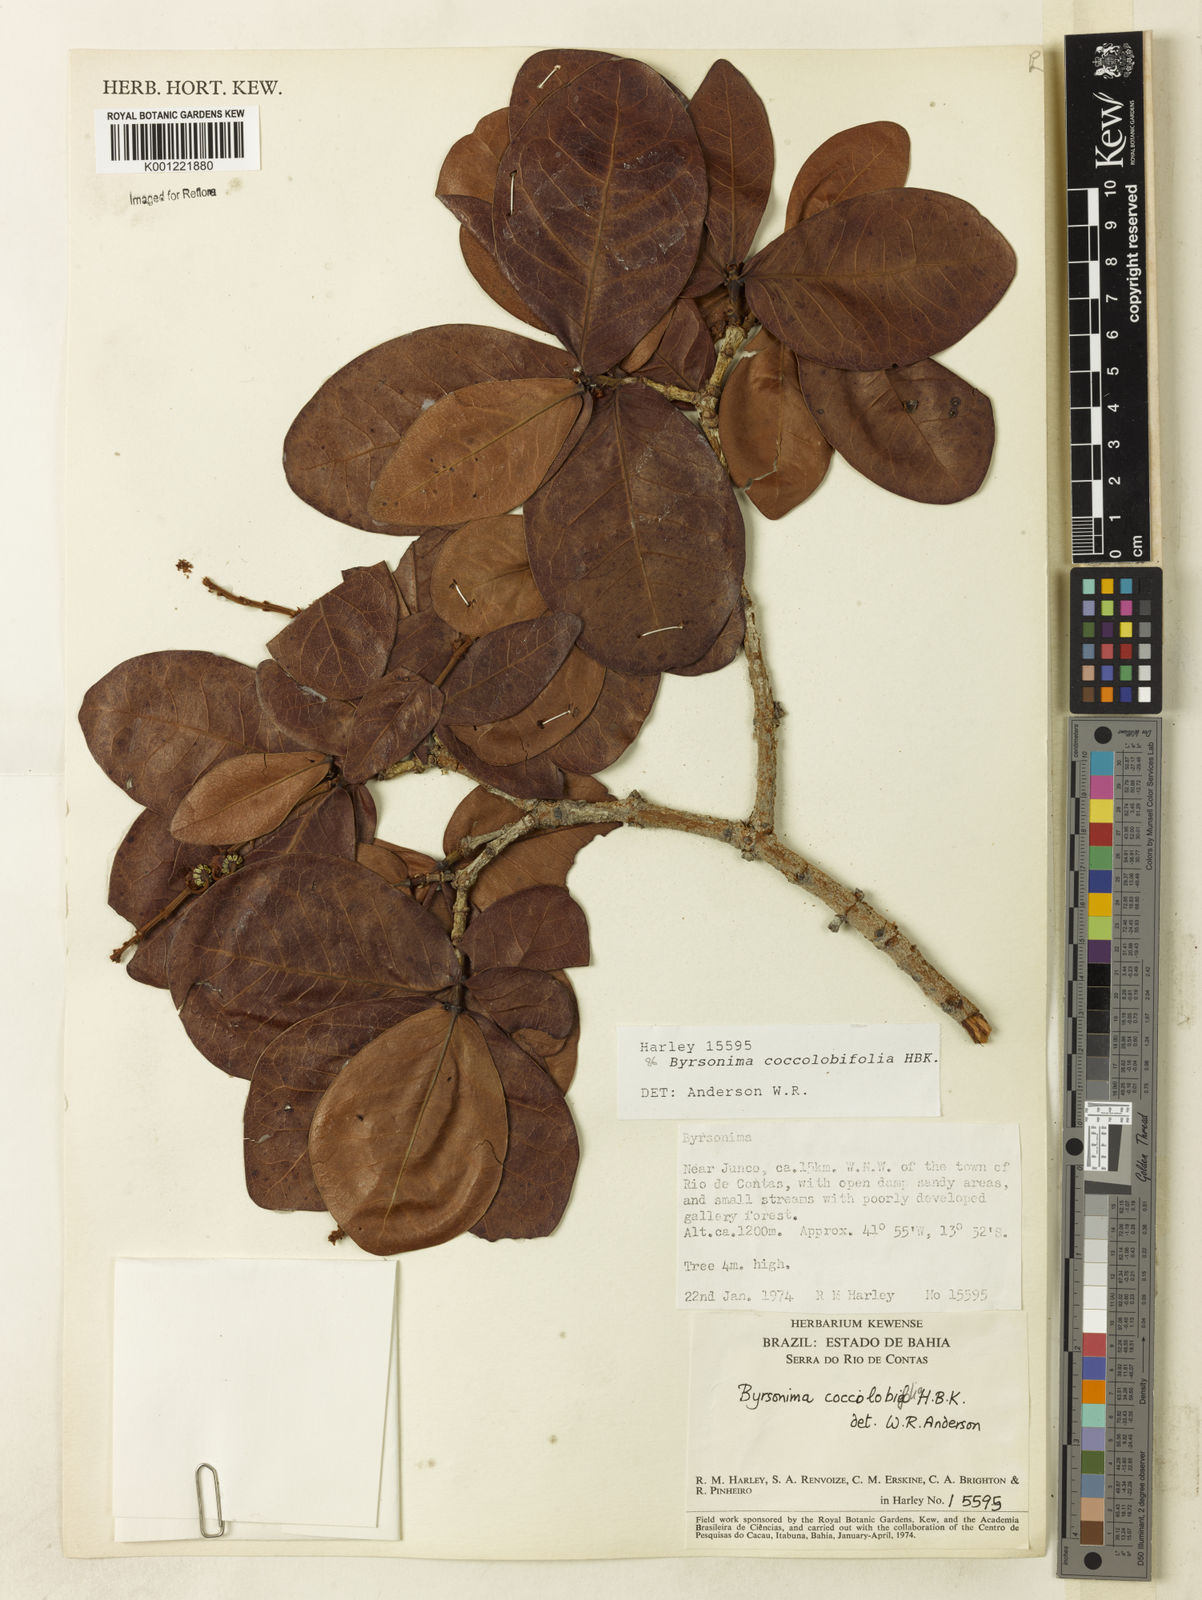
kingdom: Plantae
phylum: Tracheophyta
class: Magnoliopsida
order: Malpighiales
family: Malpighiaceae
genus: Byrsonima
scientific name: Byrsonima coccolobifolia
